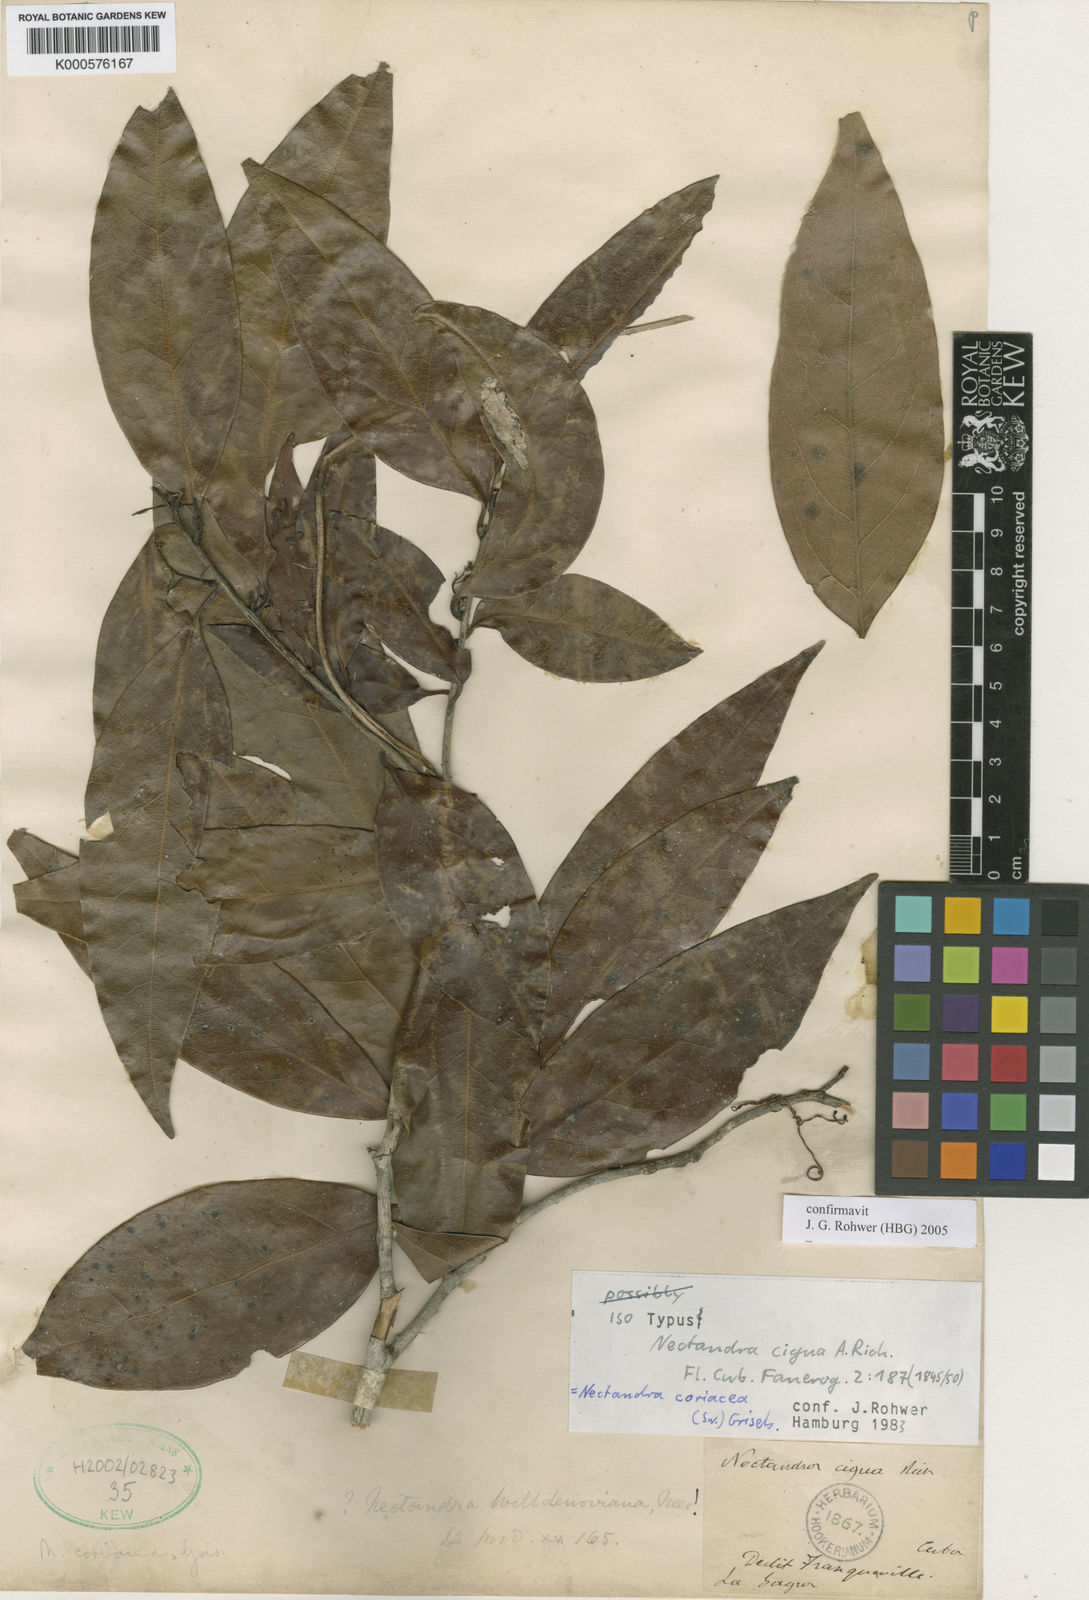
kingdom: Plantae
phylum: Tracheophyta
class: Magnoliopsida
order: Laurales
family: Lauraceae
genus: Damburneya
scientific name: Damburneya coriacea
